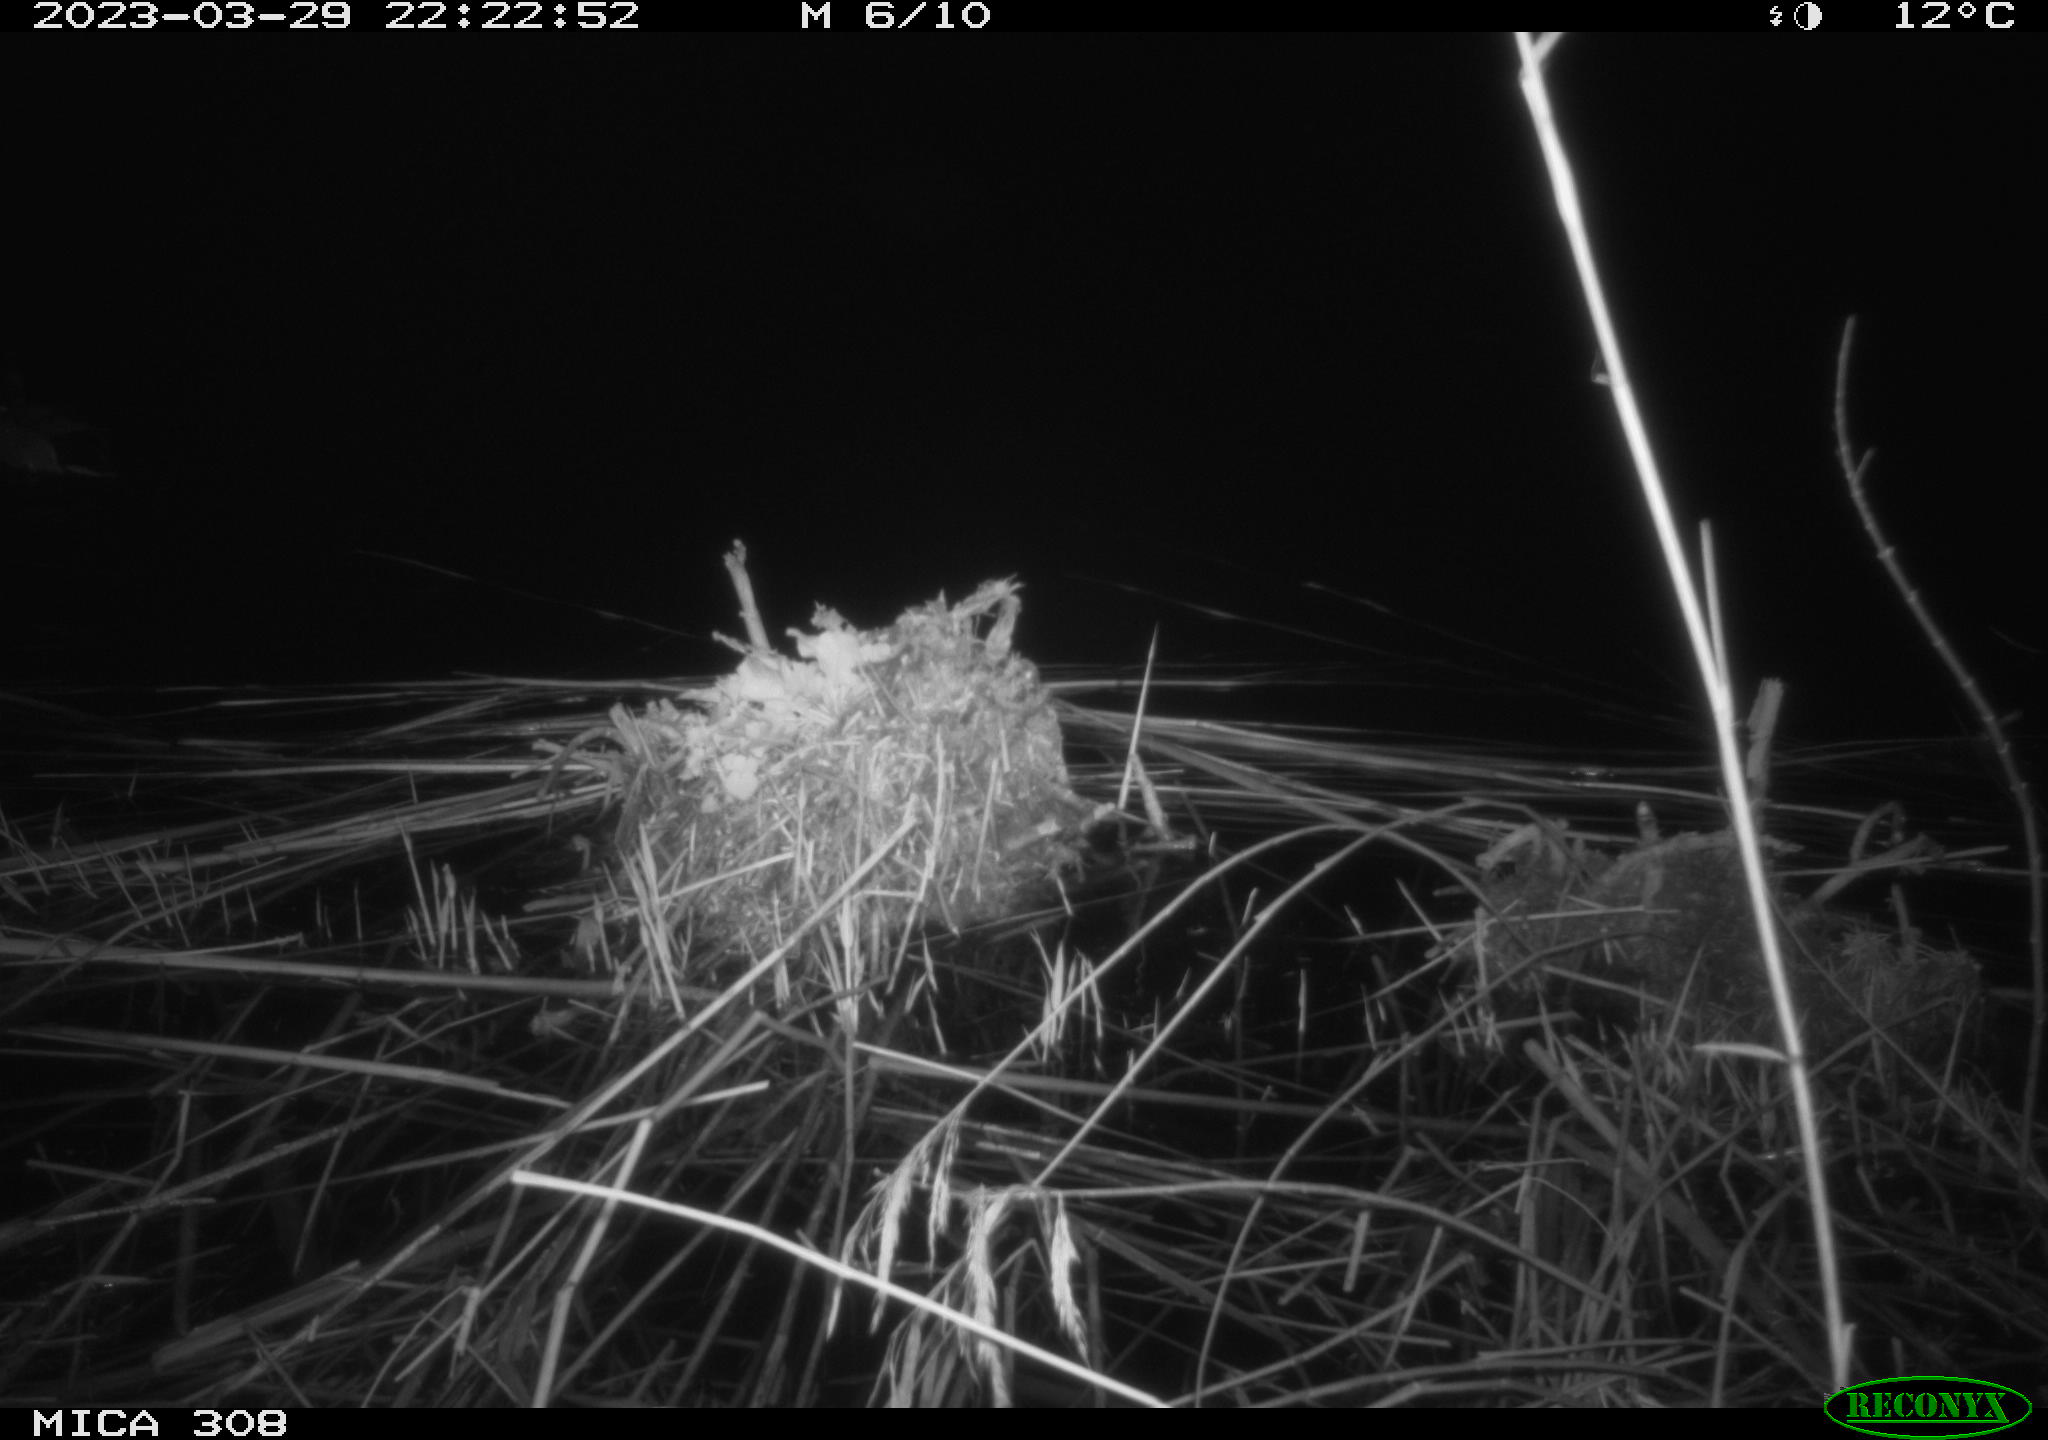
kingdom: Animalia
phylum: Chordata
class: Aves
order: Anseriformes
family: Anatidae
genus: Anas
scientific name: Anas
